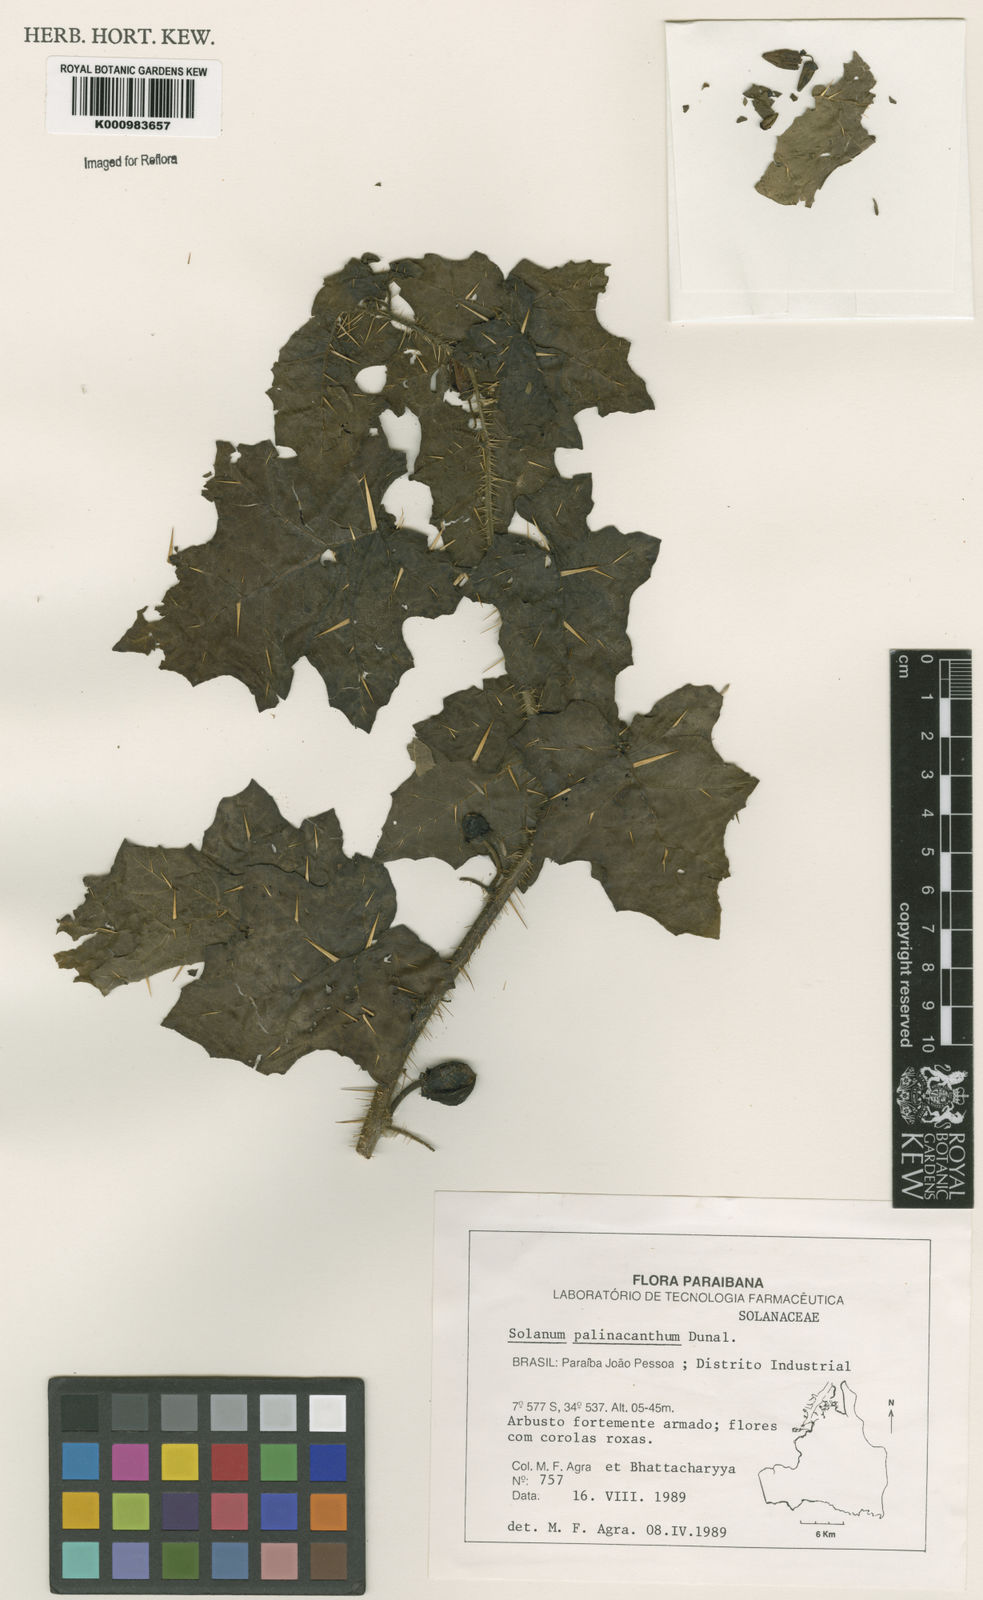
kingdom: Plantae
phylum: Tracheophyta
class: Magnoliopsida
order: Solanales
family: Solanaceae
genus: Solanum
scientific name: Solanum palinacanthum
